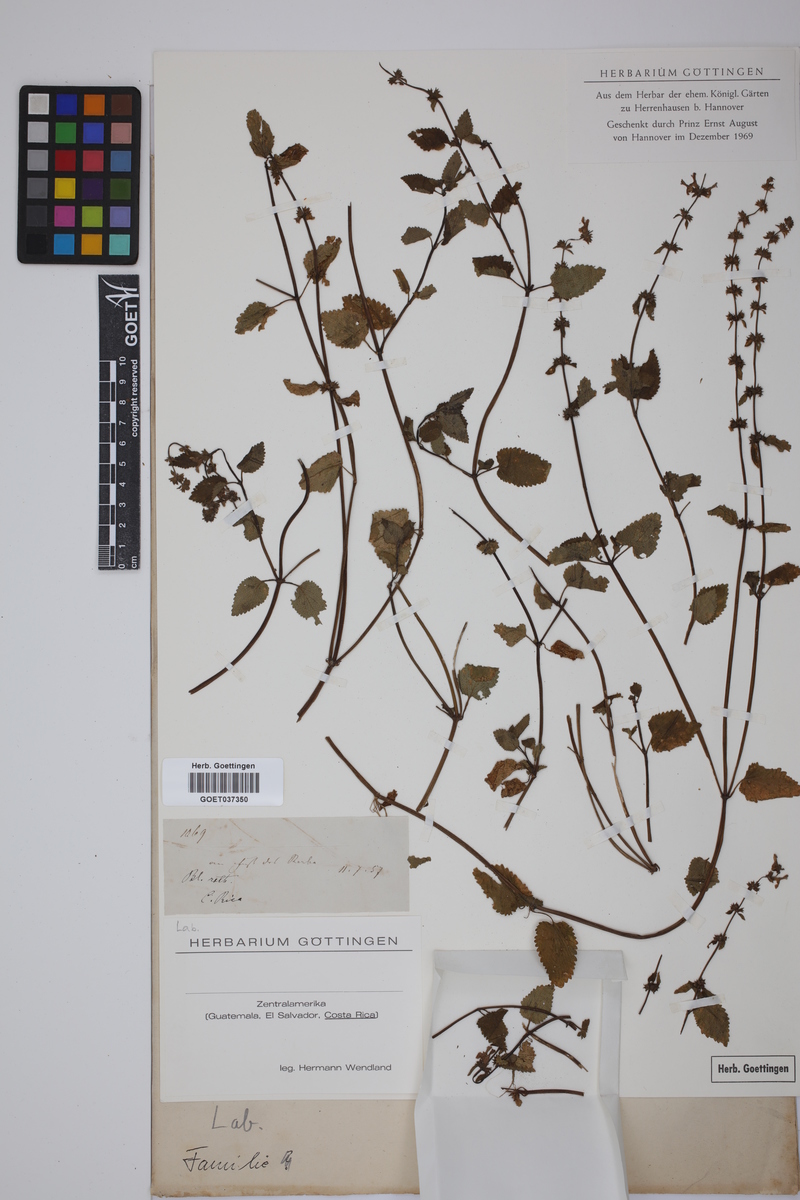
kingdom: Plantae
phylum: Tracheophyta
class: Magnoliopsida
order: Lamiales
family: Lamiaceae
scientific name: Lamiaceae
